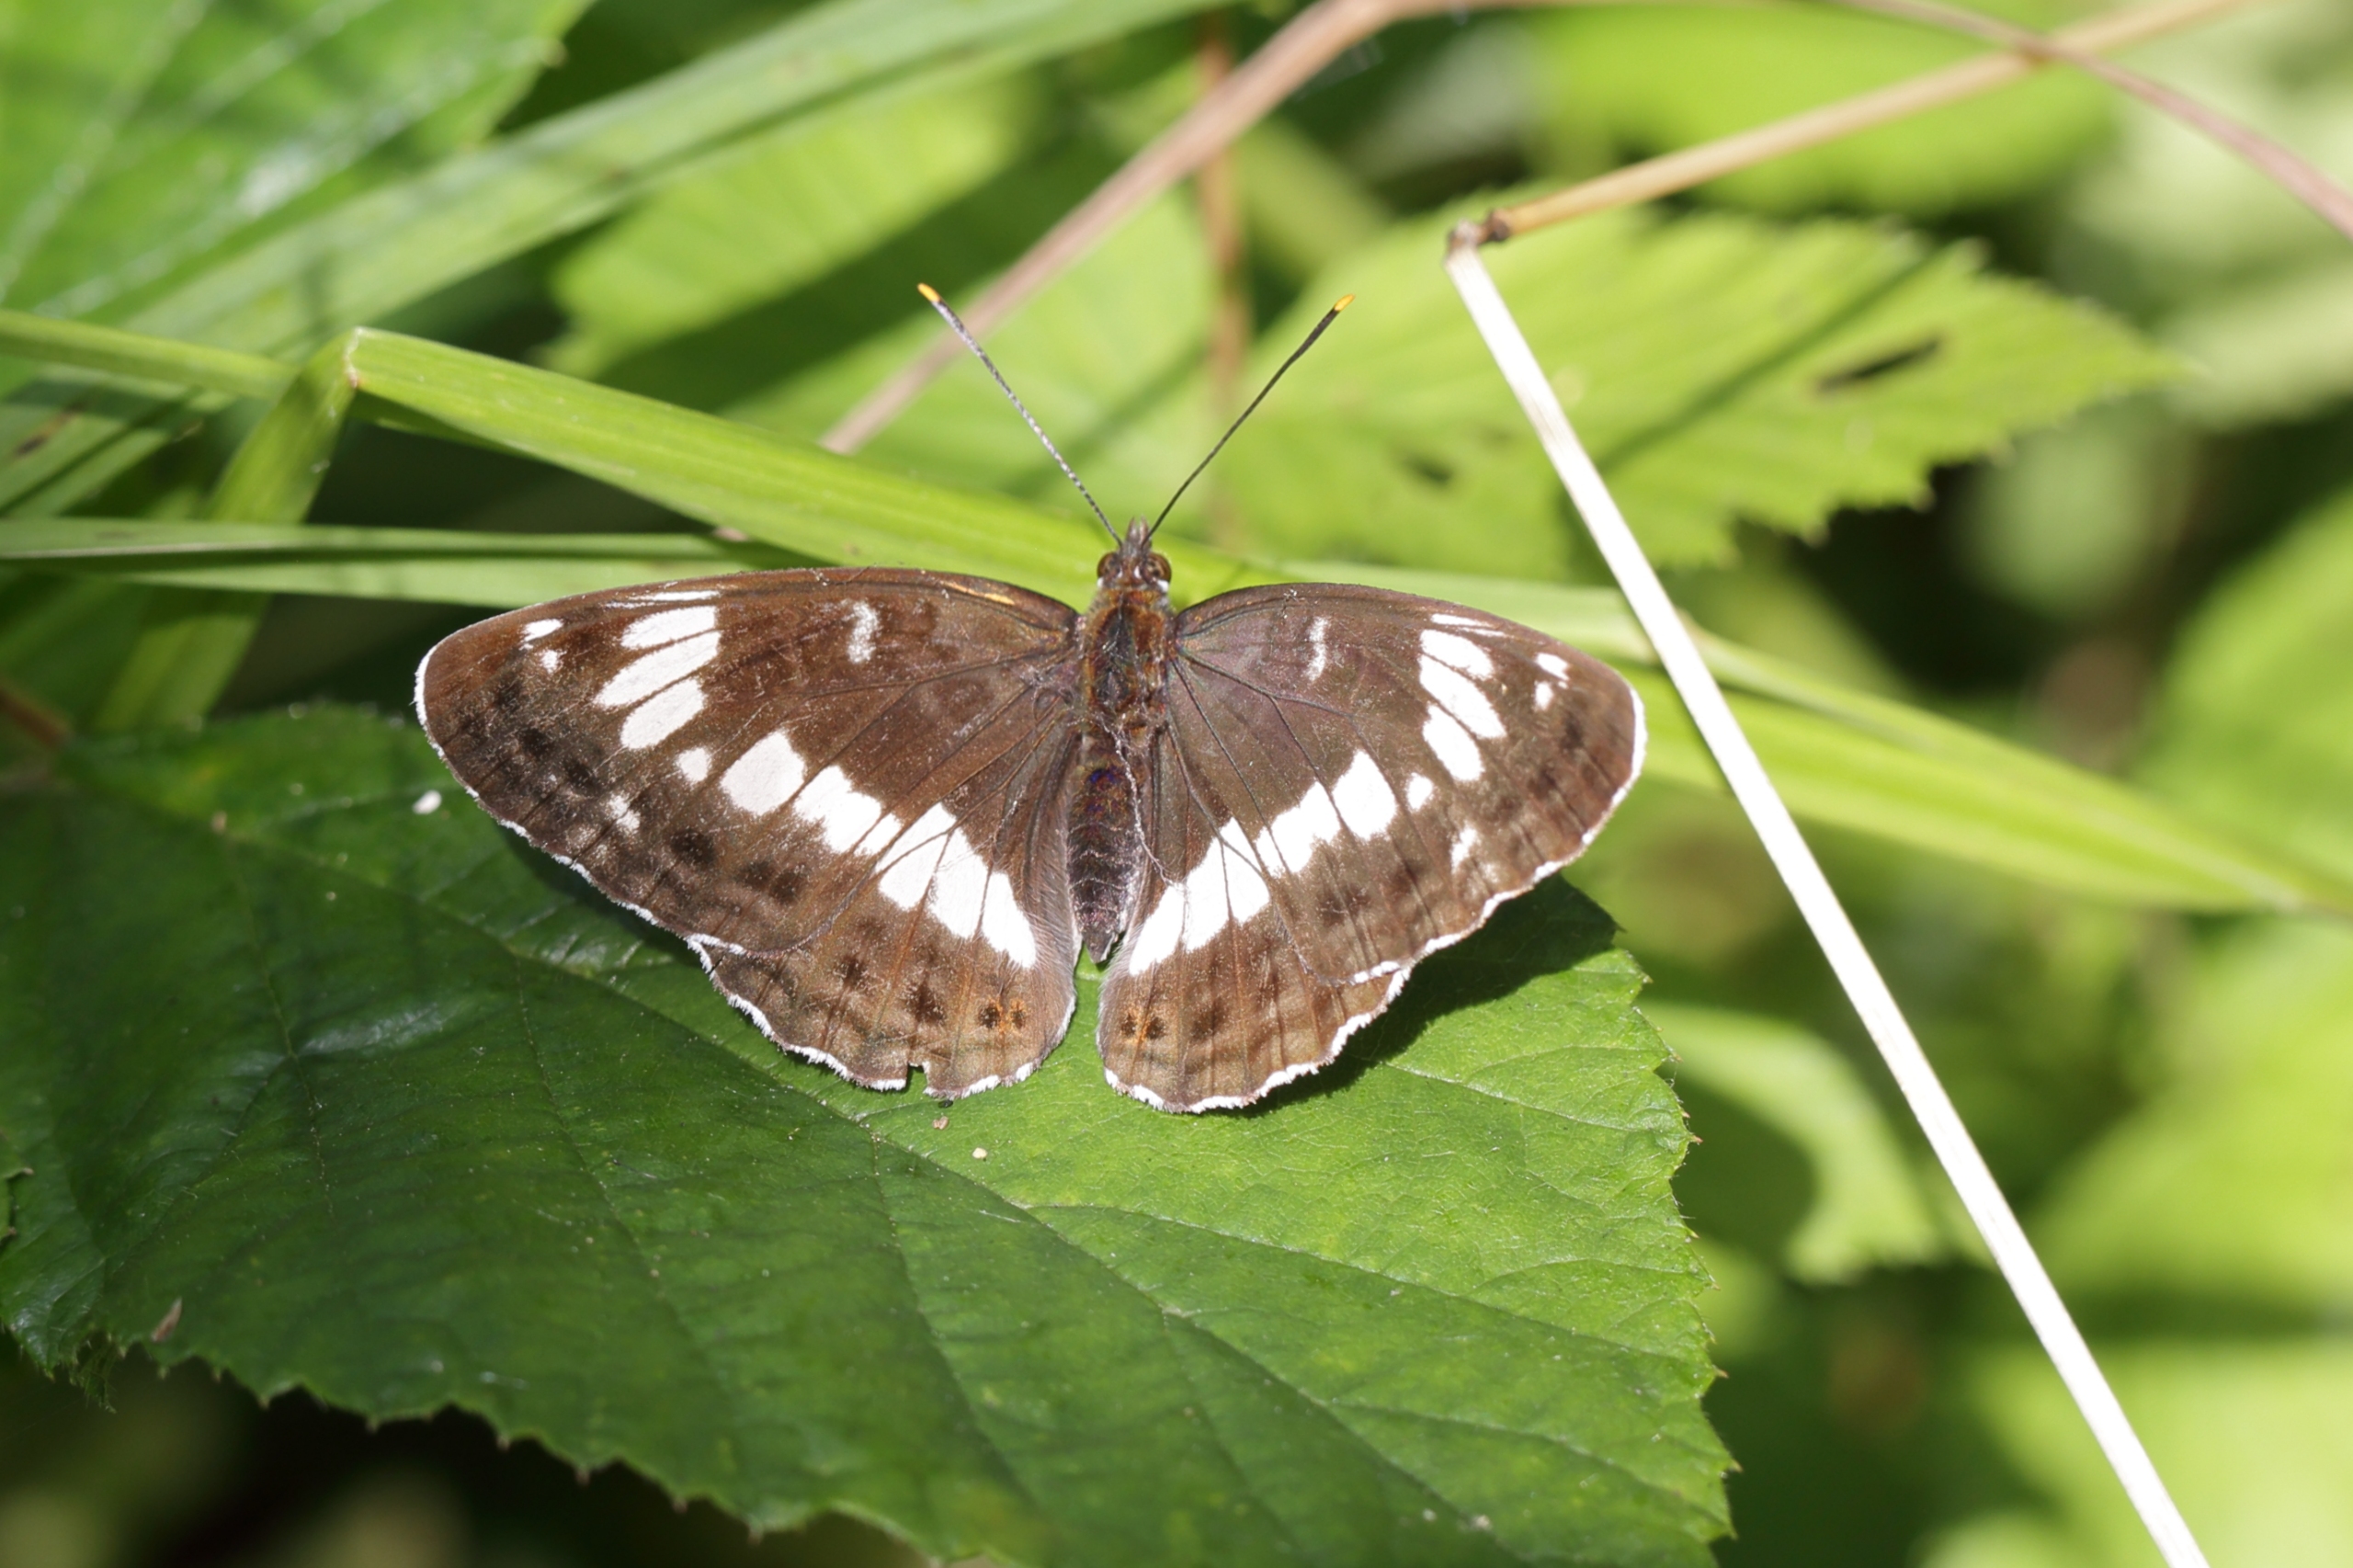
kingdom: Animalia
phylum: Arthropoda
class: Insecta
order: Lepidoptera
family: Nymphalidae
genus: Ladoga
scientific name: Ladoga camilla
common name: Hvid admiral
